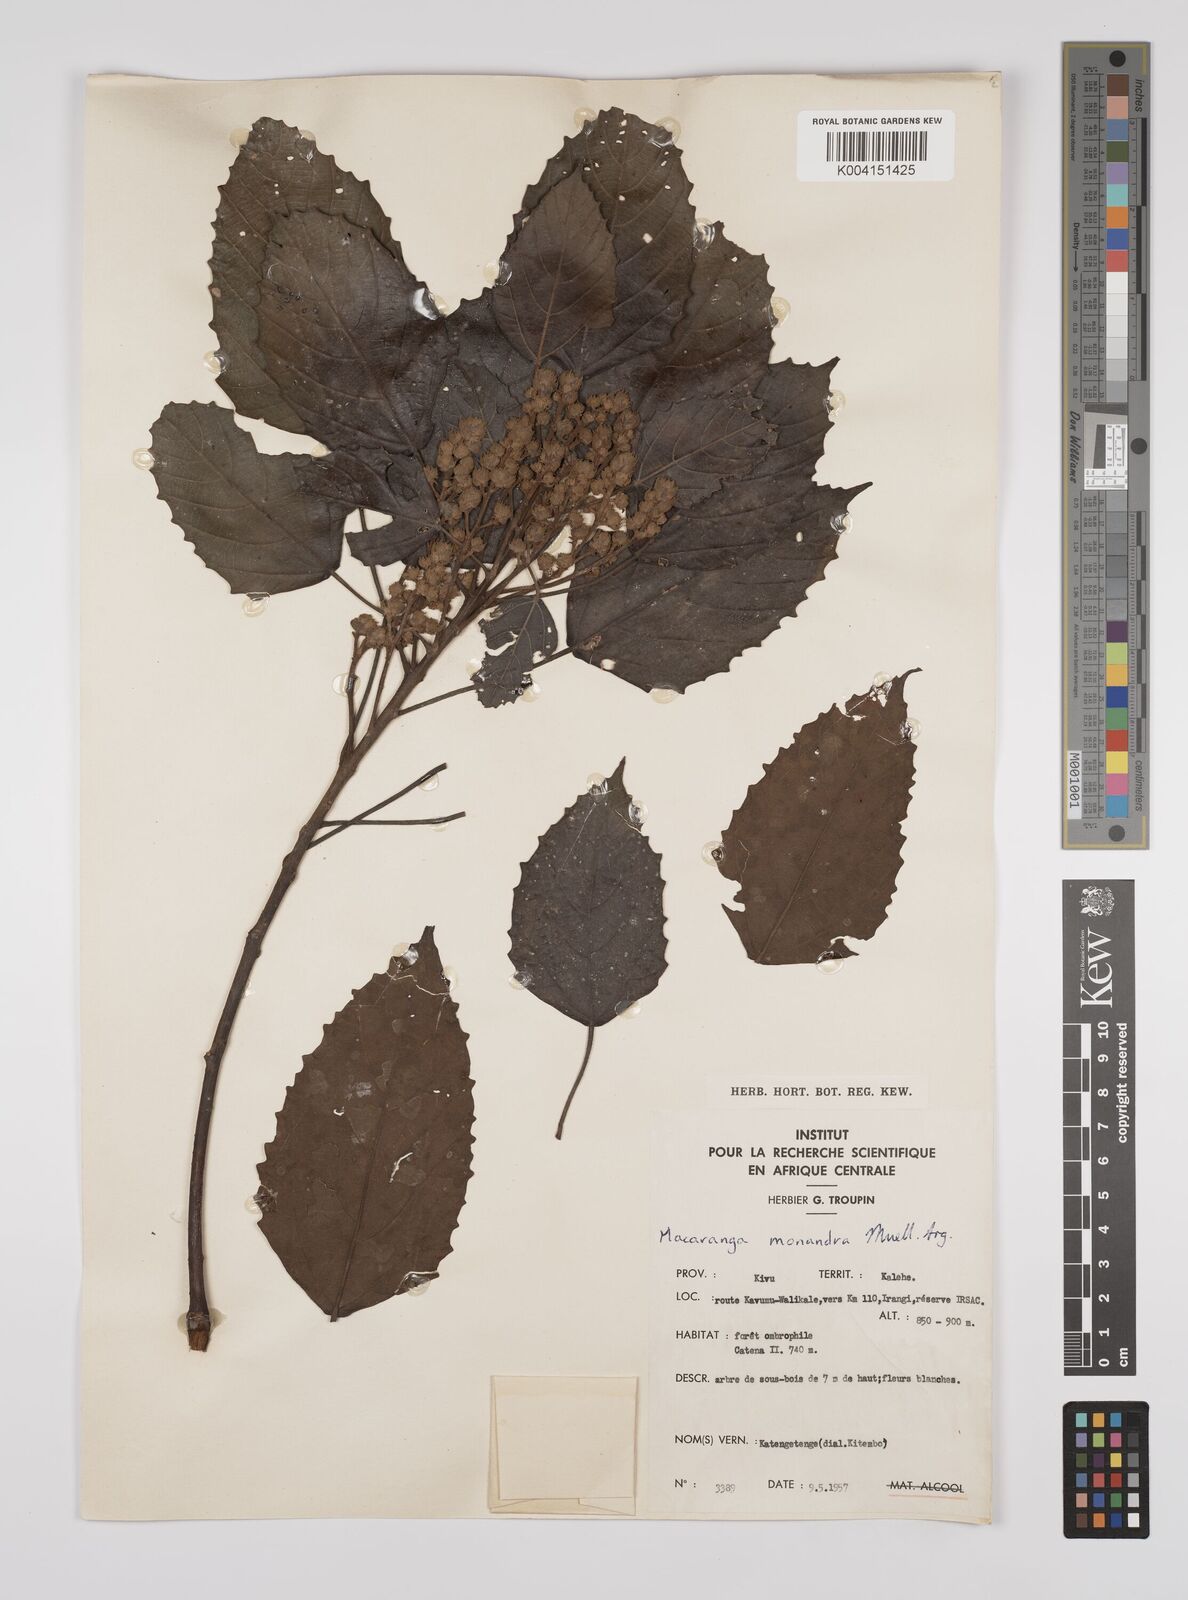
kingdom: Plantae
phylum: Tracheophyta
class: Magnoliopsida
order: Malpighiales
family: Euphorbiaceae
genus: Macaranga
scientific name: Macaranga monandra
